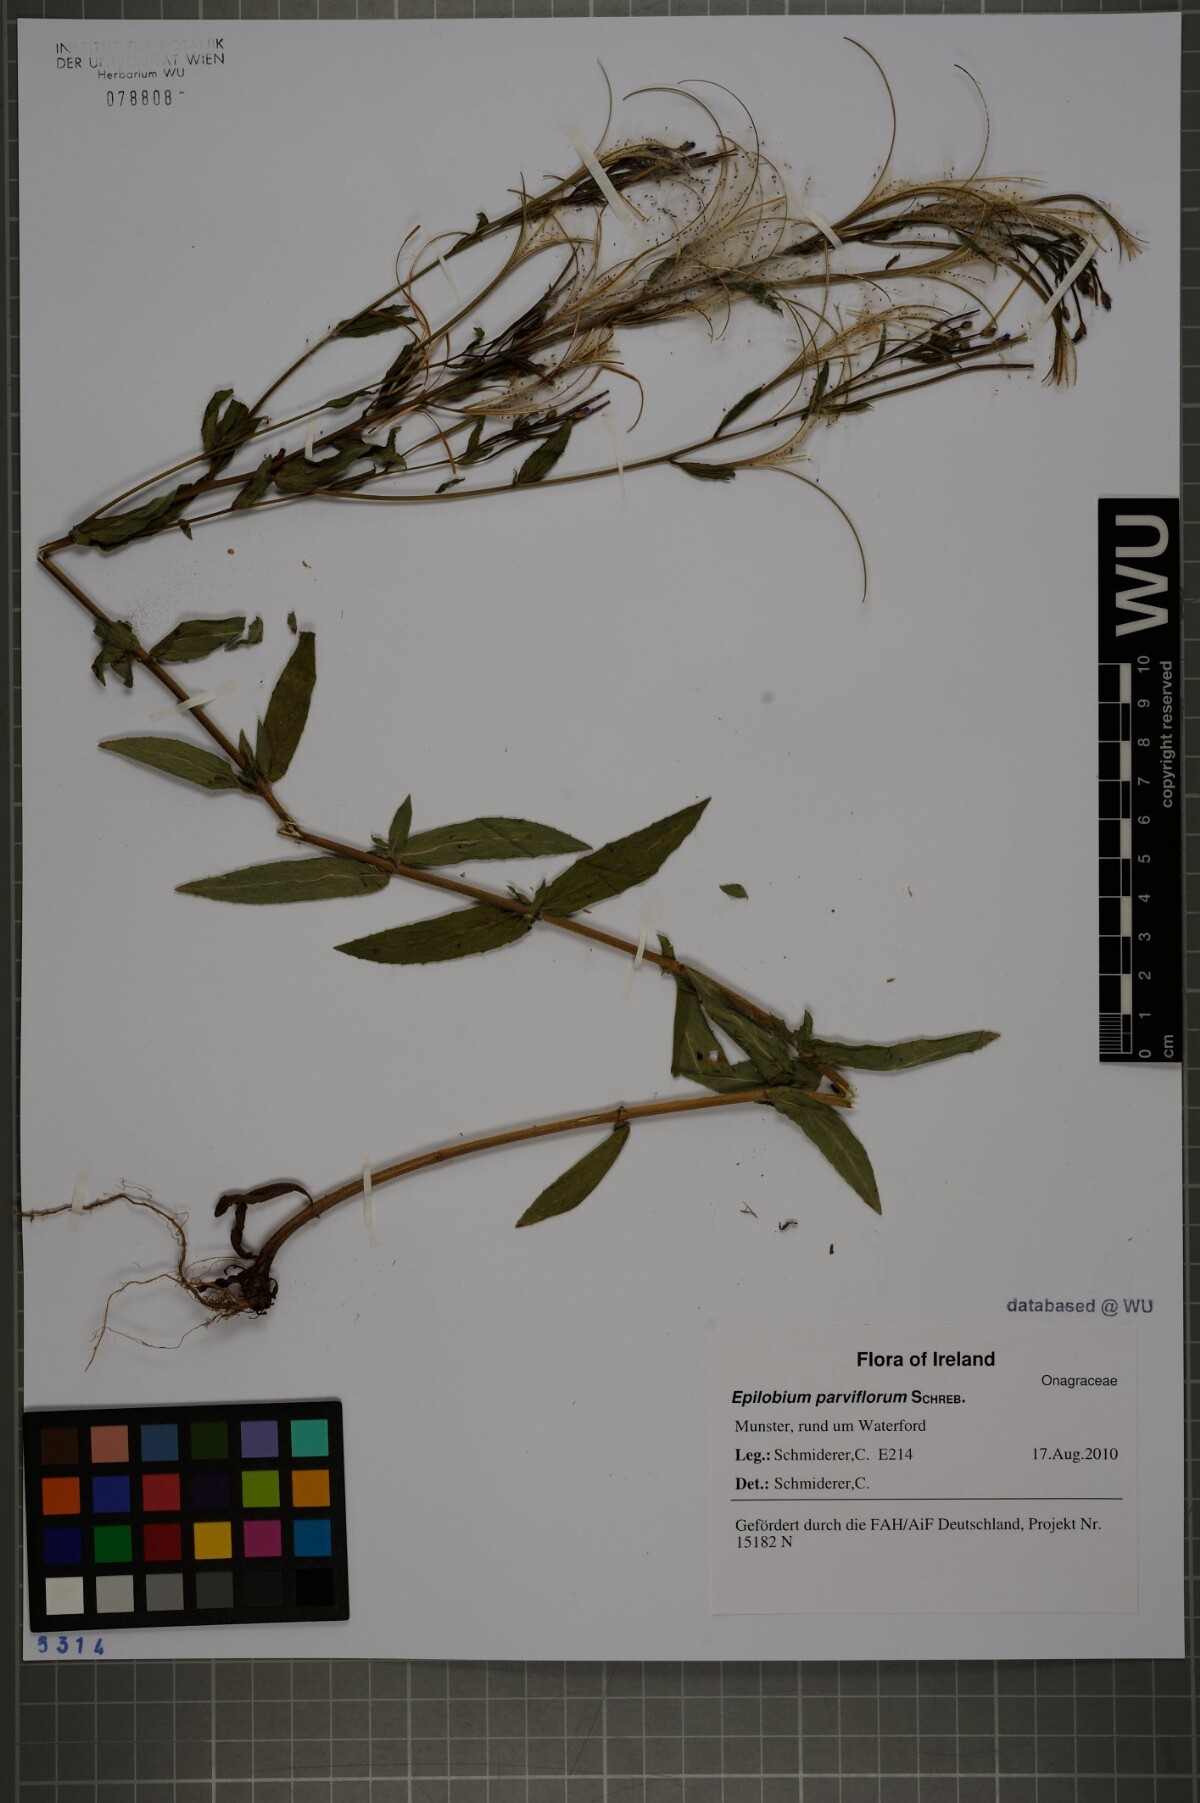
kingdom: Plantae
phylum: Tracheophyta
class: Magnoliopsida
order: Myrtales
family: Onagraceae
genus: Epilobium
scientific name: Epilobium parviflorum
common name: Hoary willowherb
